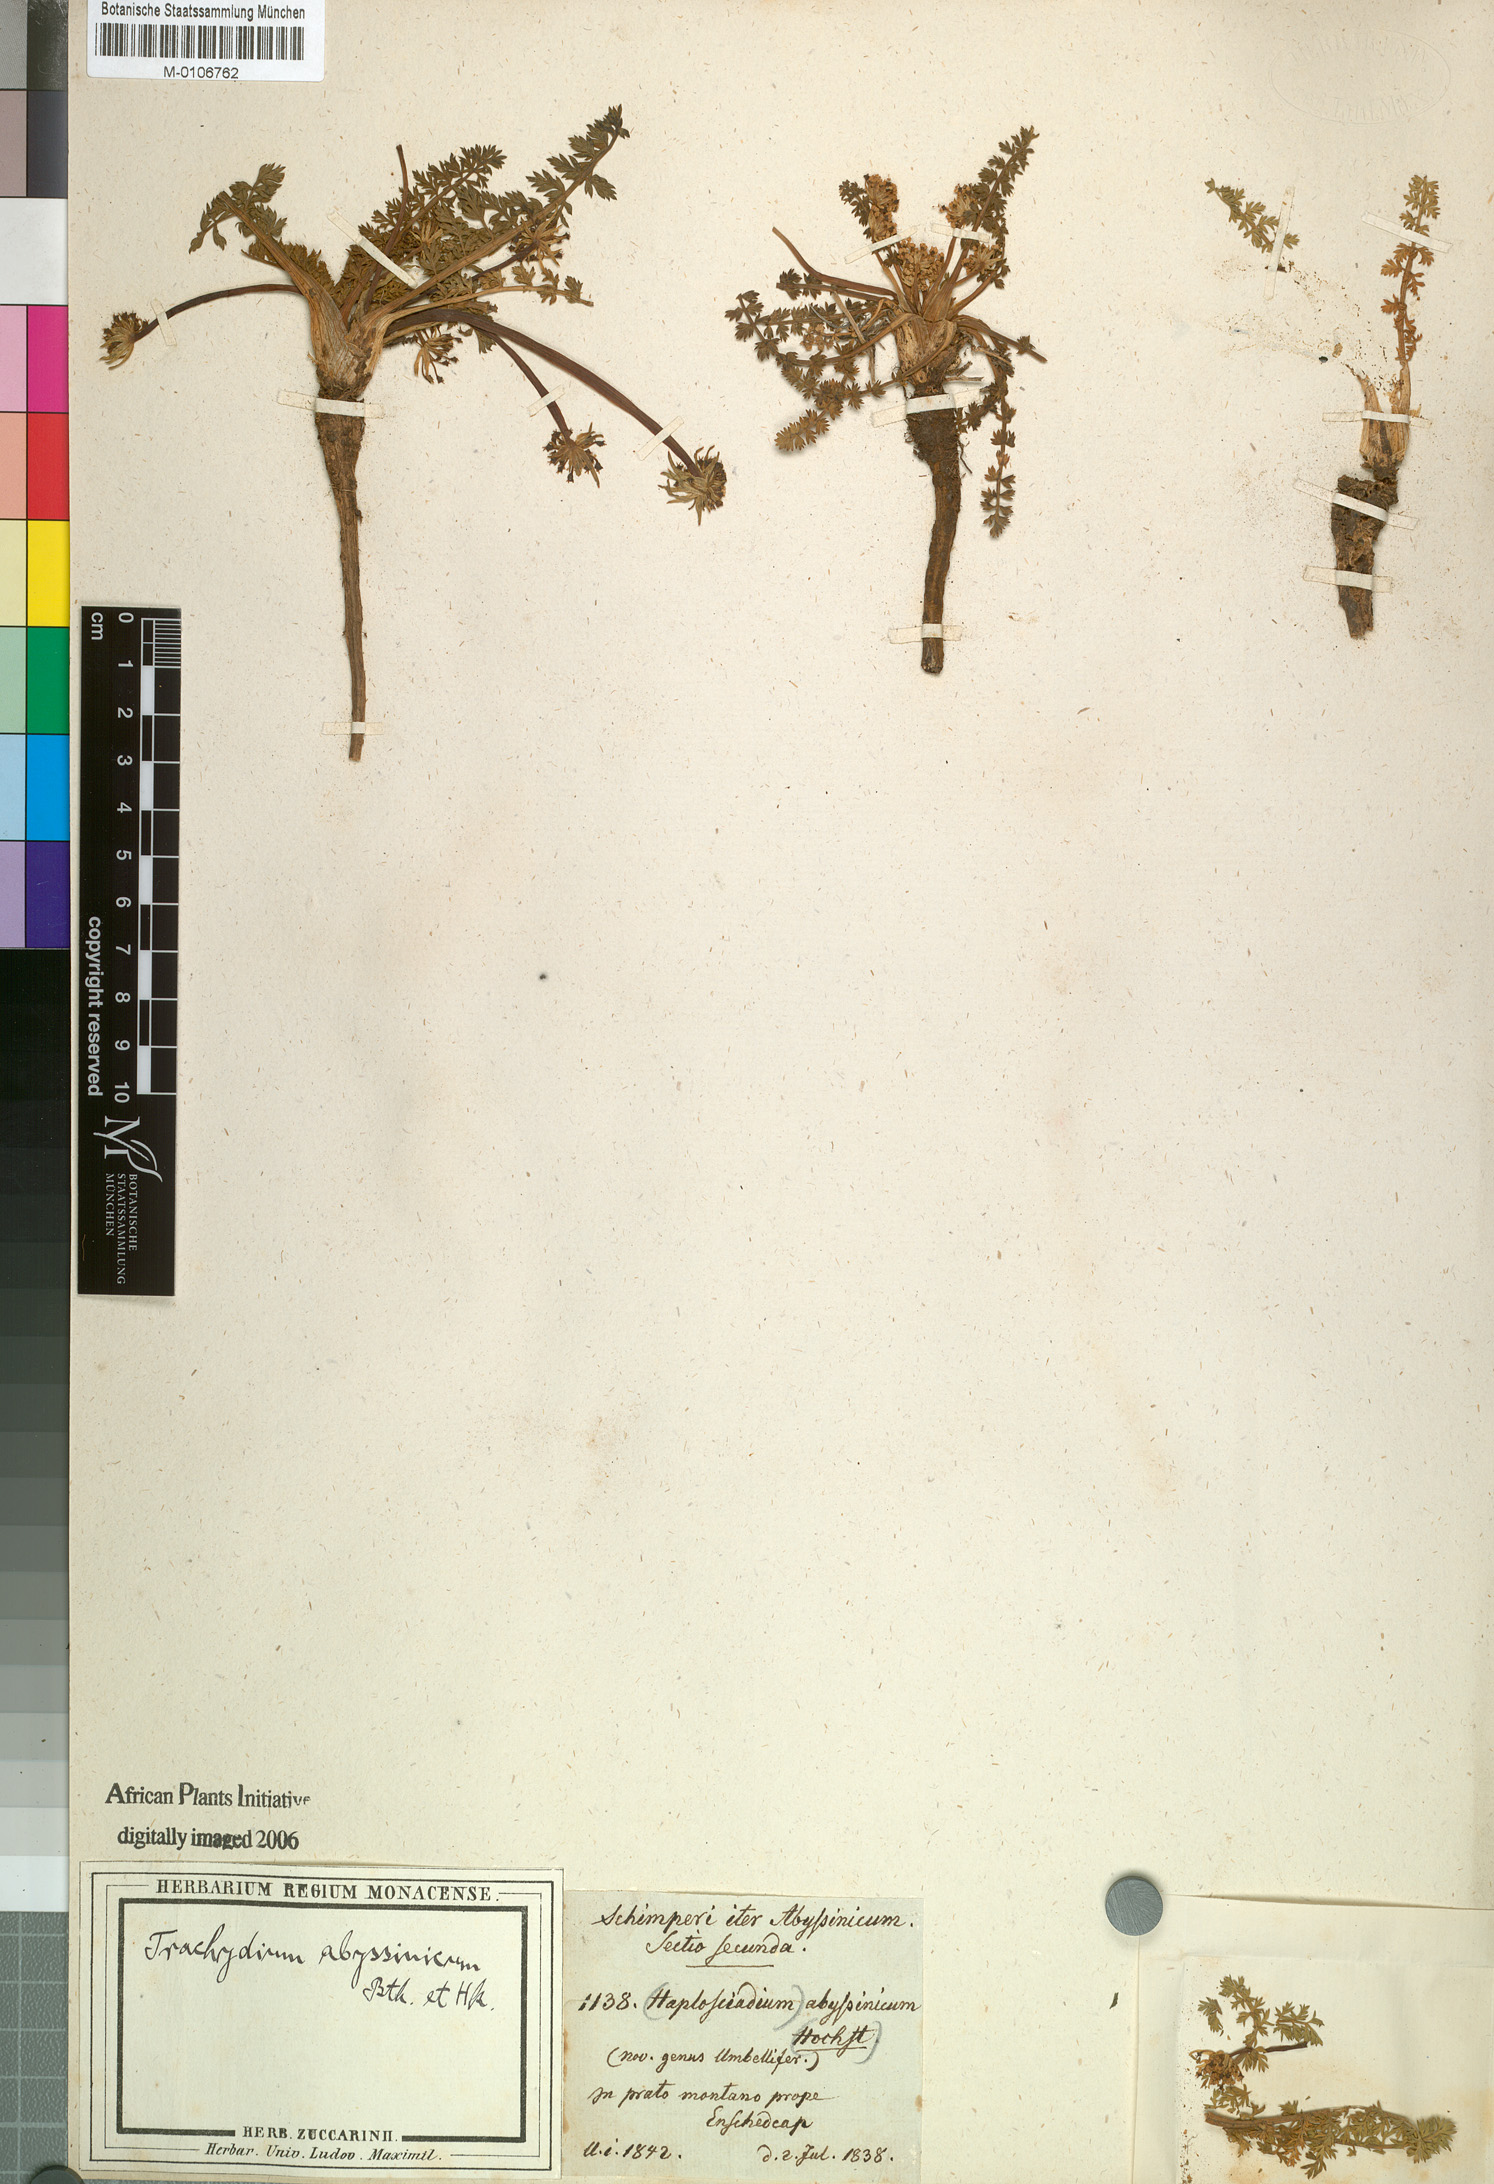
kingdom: Plantae
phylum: Tracheophyta
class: Magnoliopsida
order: Apiales
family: Apiaceae
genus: Haplosciadium
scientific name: Haplosciadium abyssinicum
